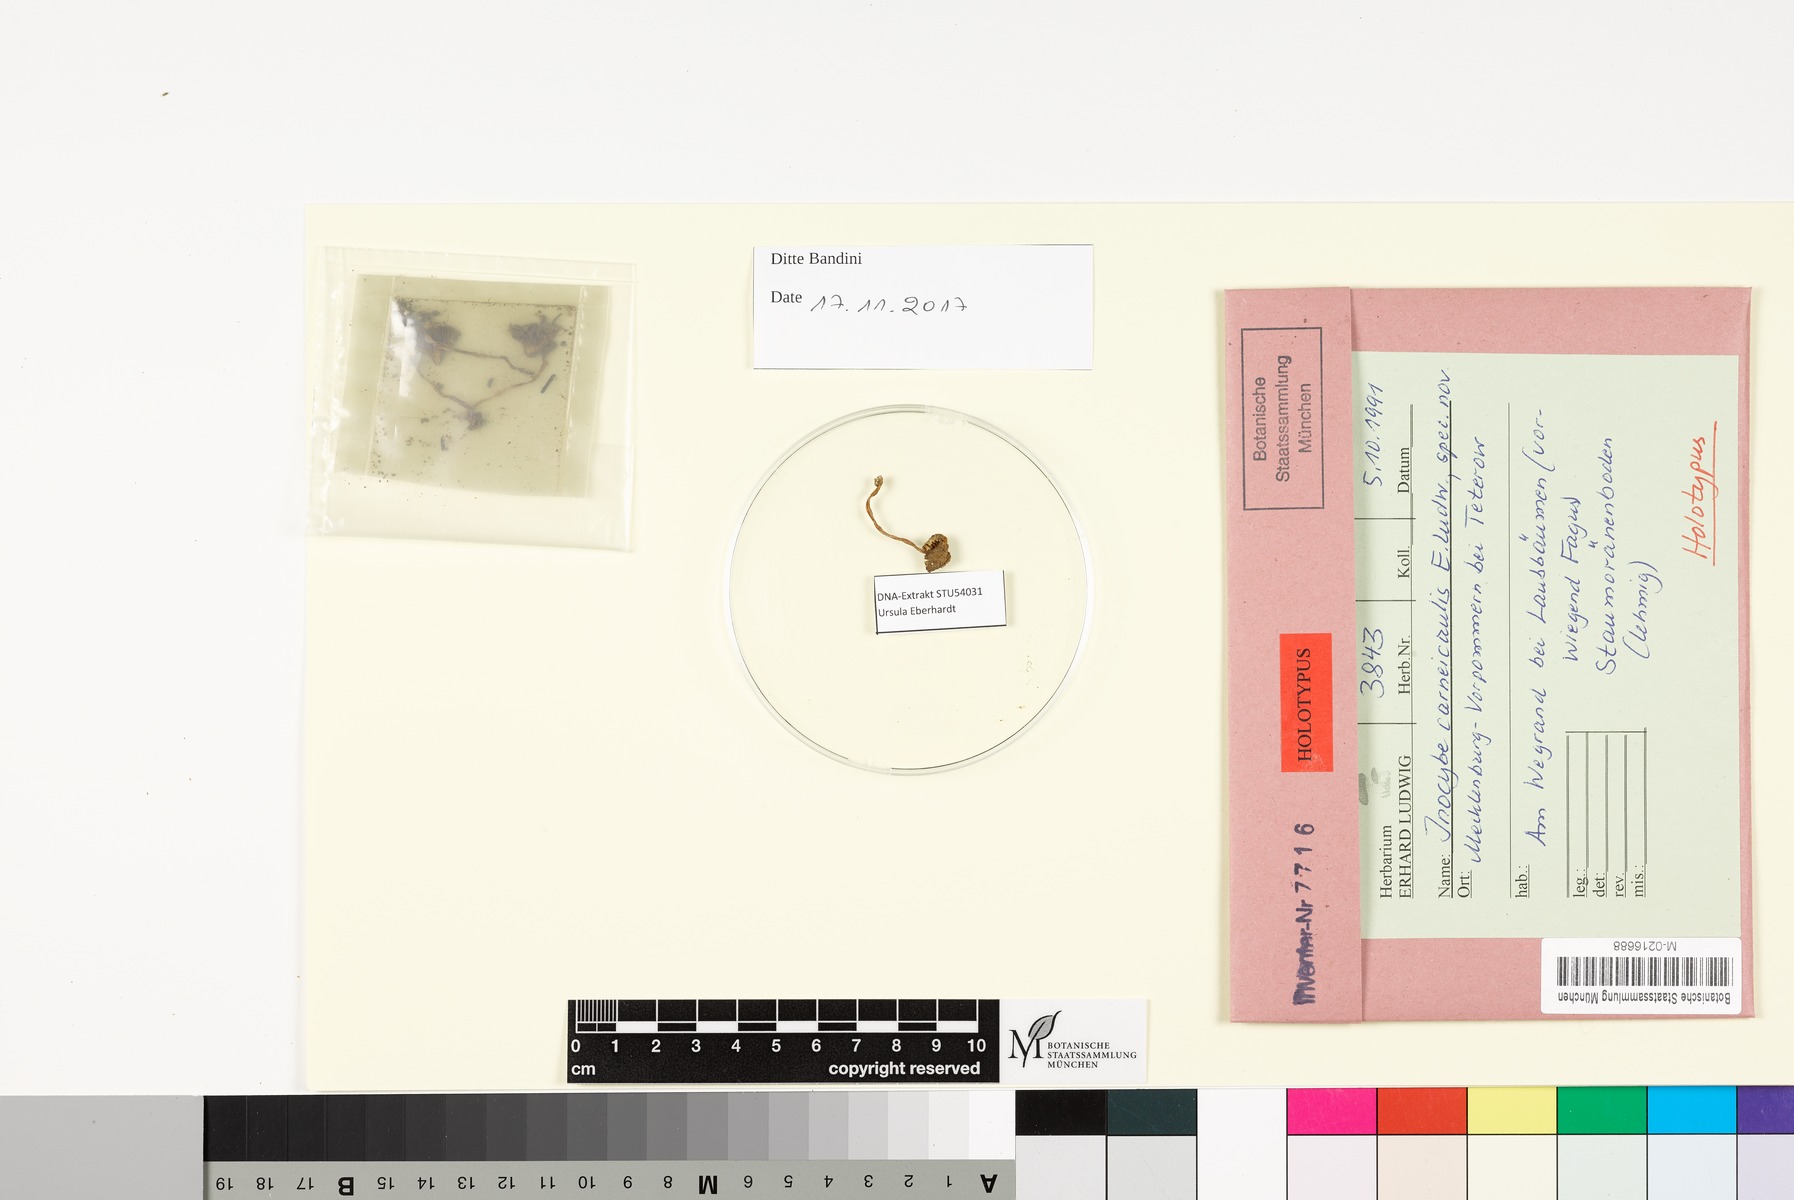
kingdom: Fungi
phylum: Basidiomycota
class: Agaricomycetes
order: Agaricales
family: Inocybaceae
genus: Inocybe
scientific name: Inocybe carneicaulis
